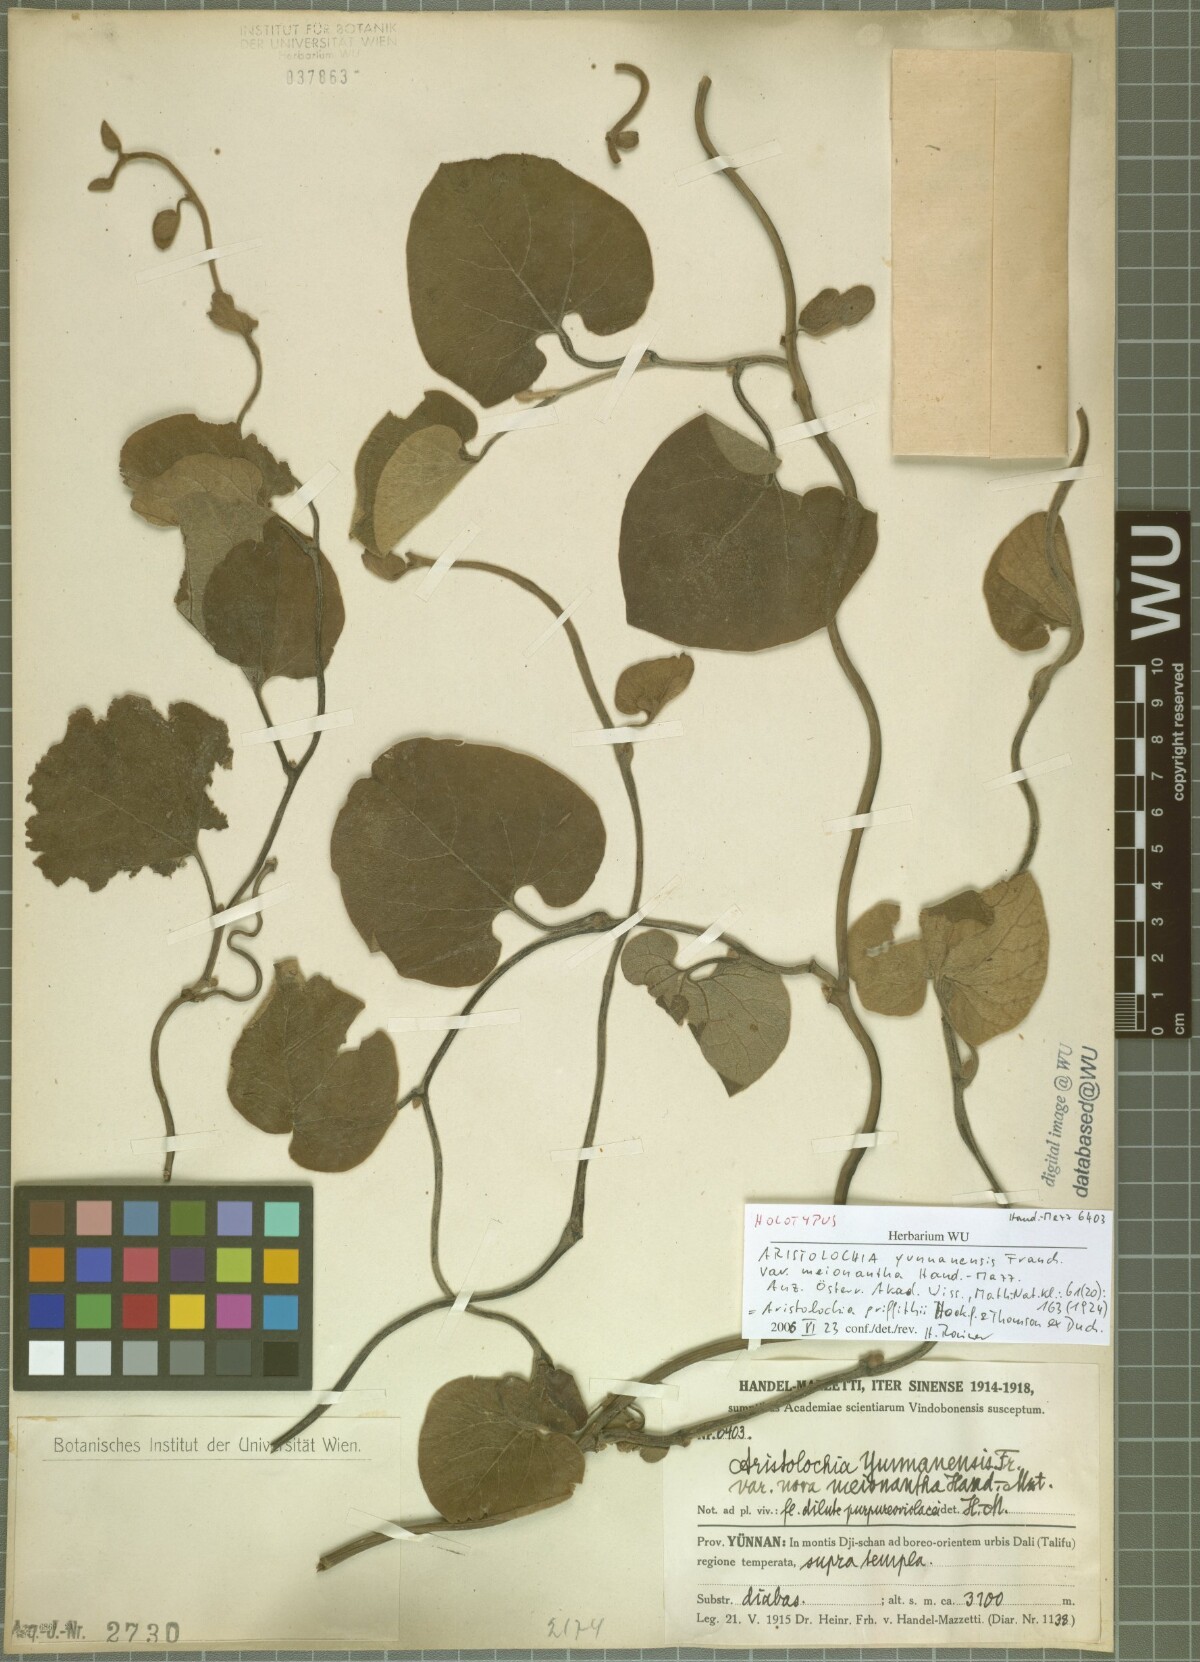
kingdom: Plantae
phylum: Tracheophyta
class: Magnoliopsida
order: Piperales
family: Aristolochiaceae
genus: Isotrema
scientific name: Isotrema meionanthum
